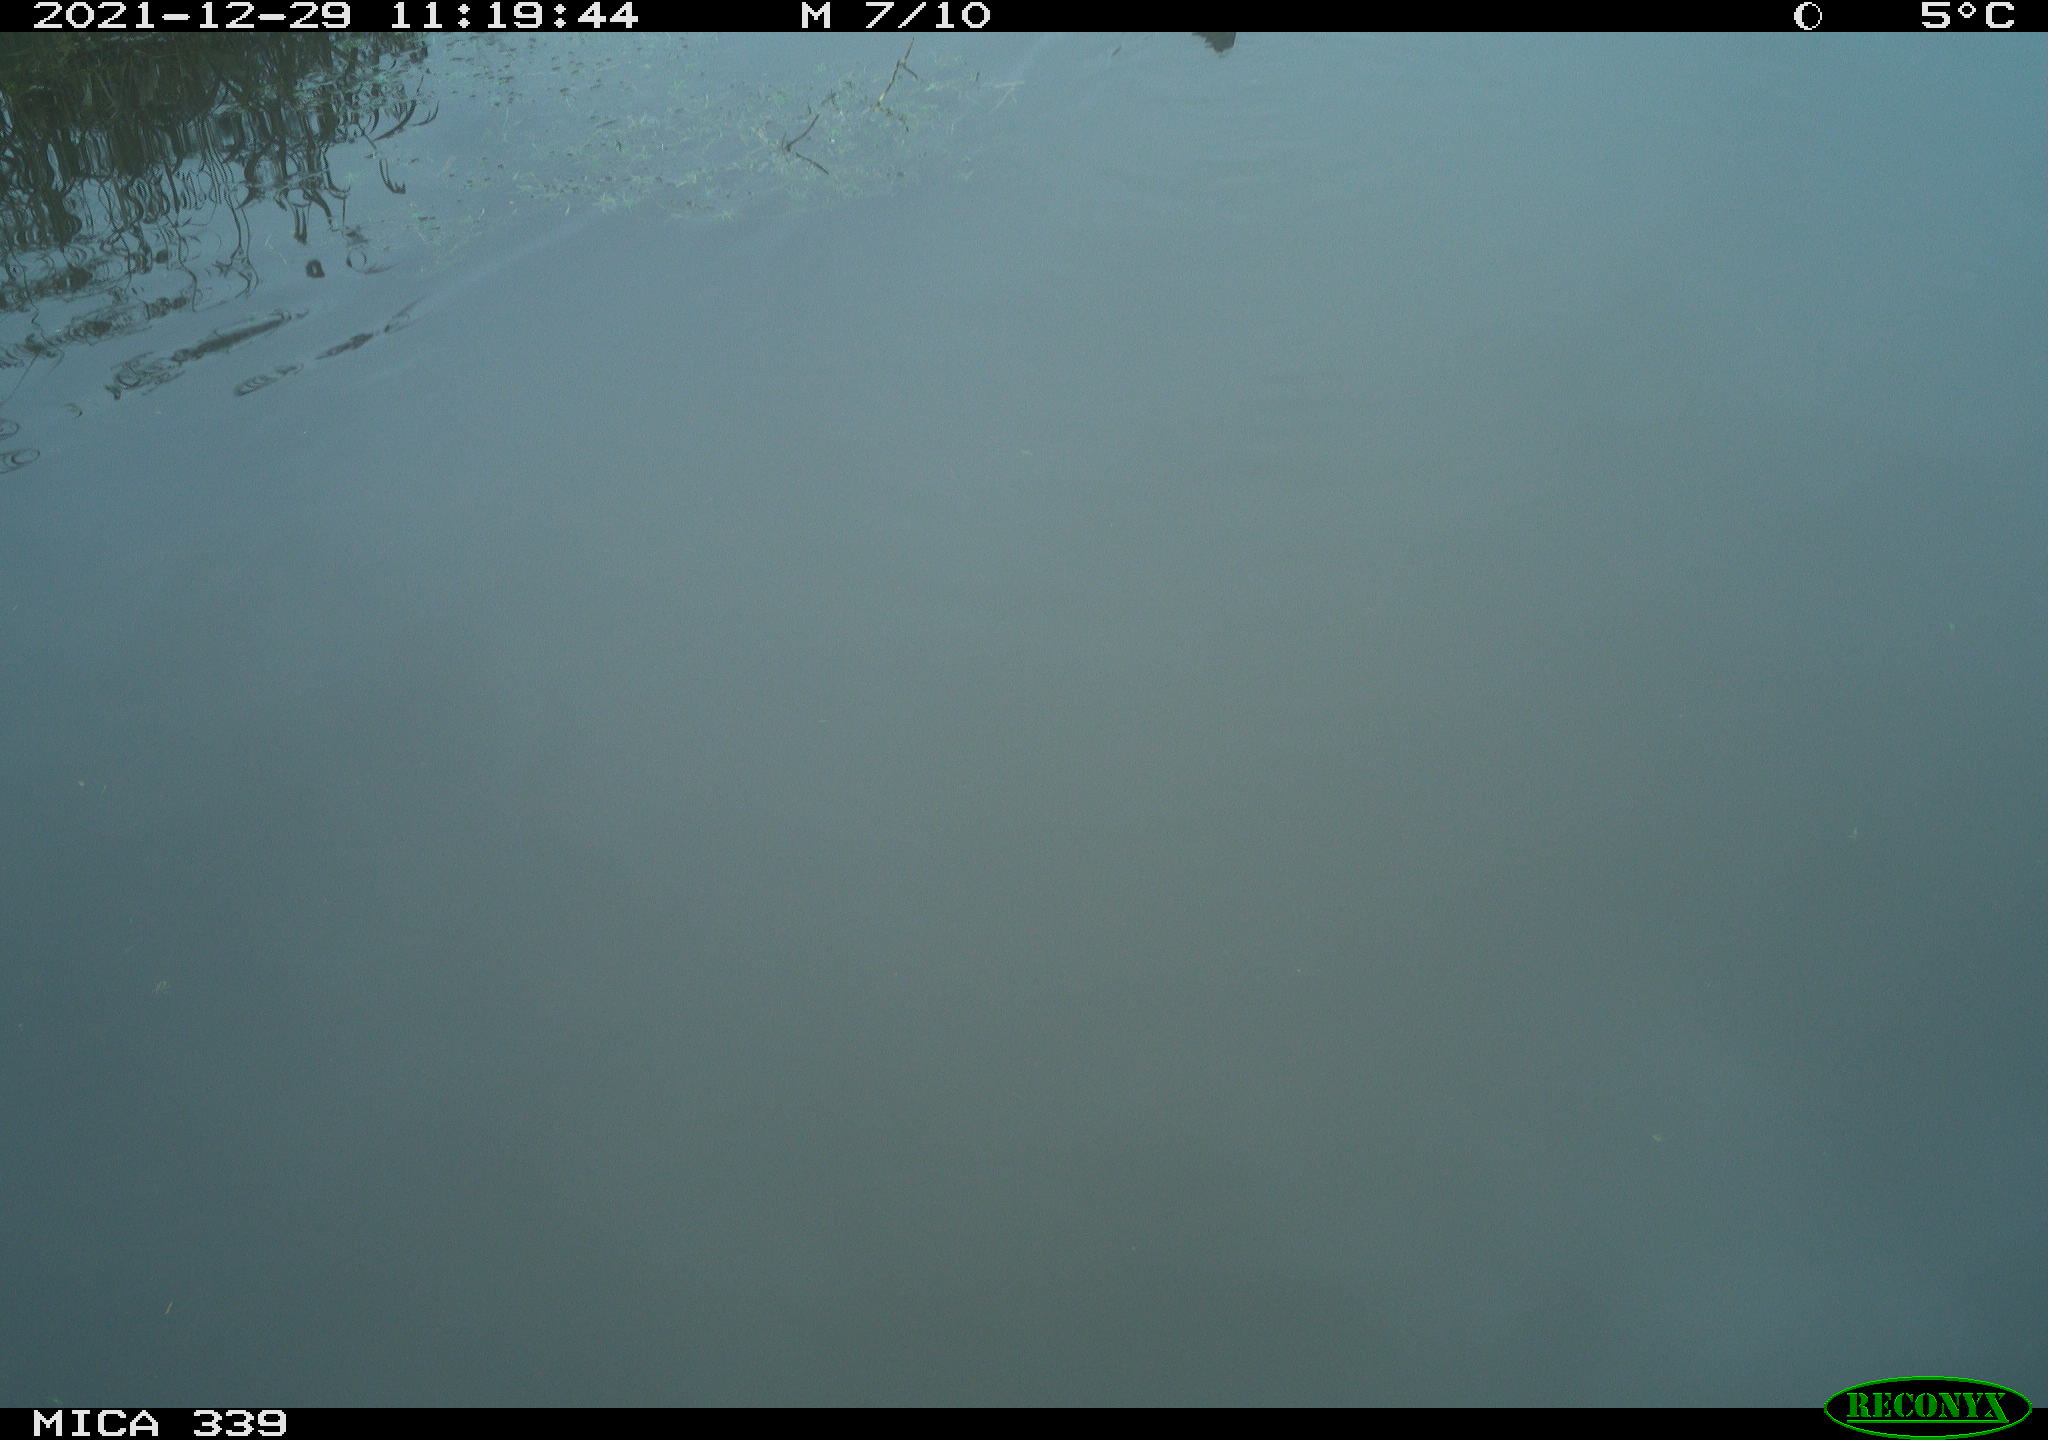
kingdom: Animalia
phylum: Chordata
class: Aves
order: Gruiformes
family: Rallidae
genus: Gallinula
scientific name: Gallinula chloropus
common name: Common moorhen
